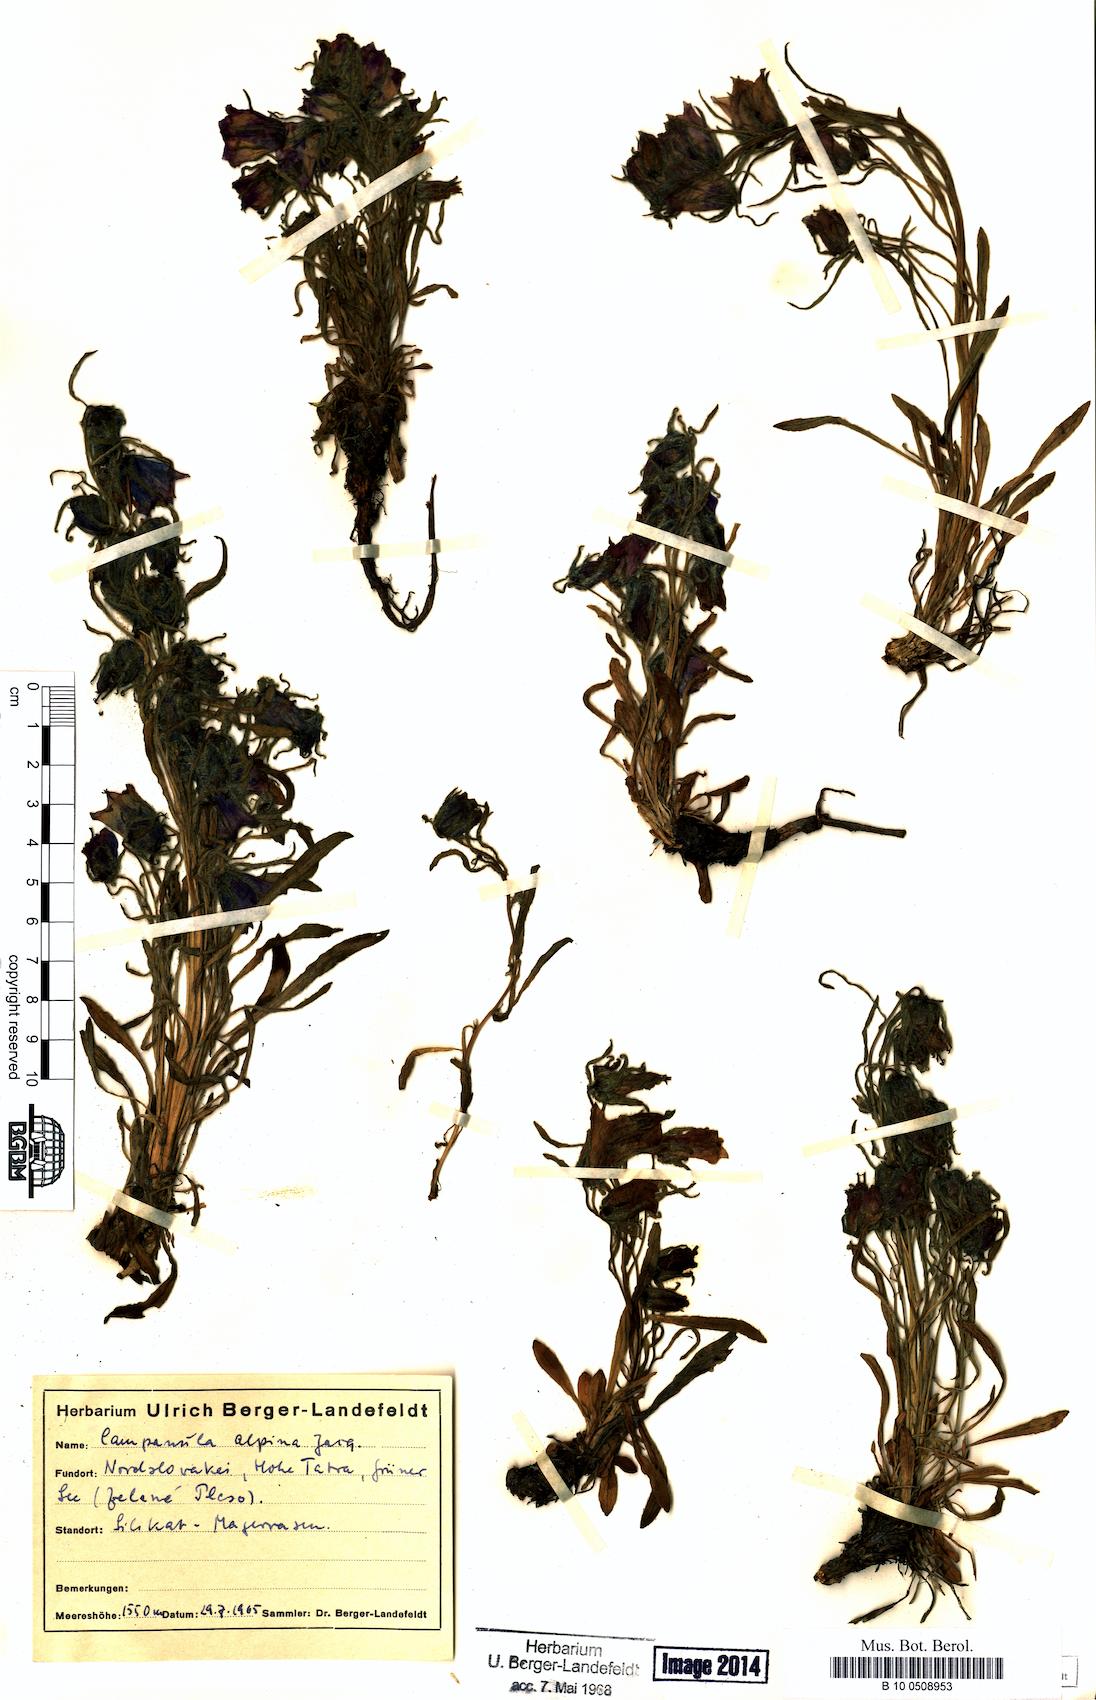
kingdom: Plantae
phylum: Tracheophyta
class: Magnoliopsida
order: Asterales
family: Campanulaceae
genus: Campanula
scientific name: Campanula alpina
